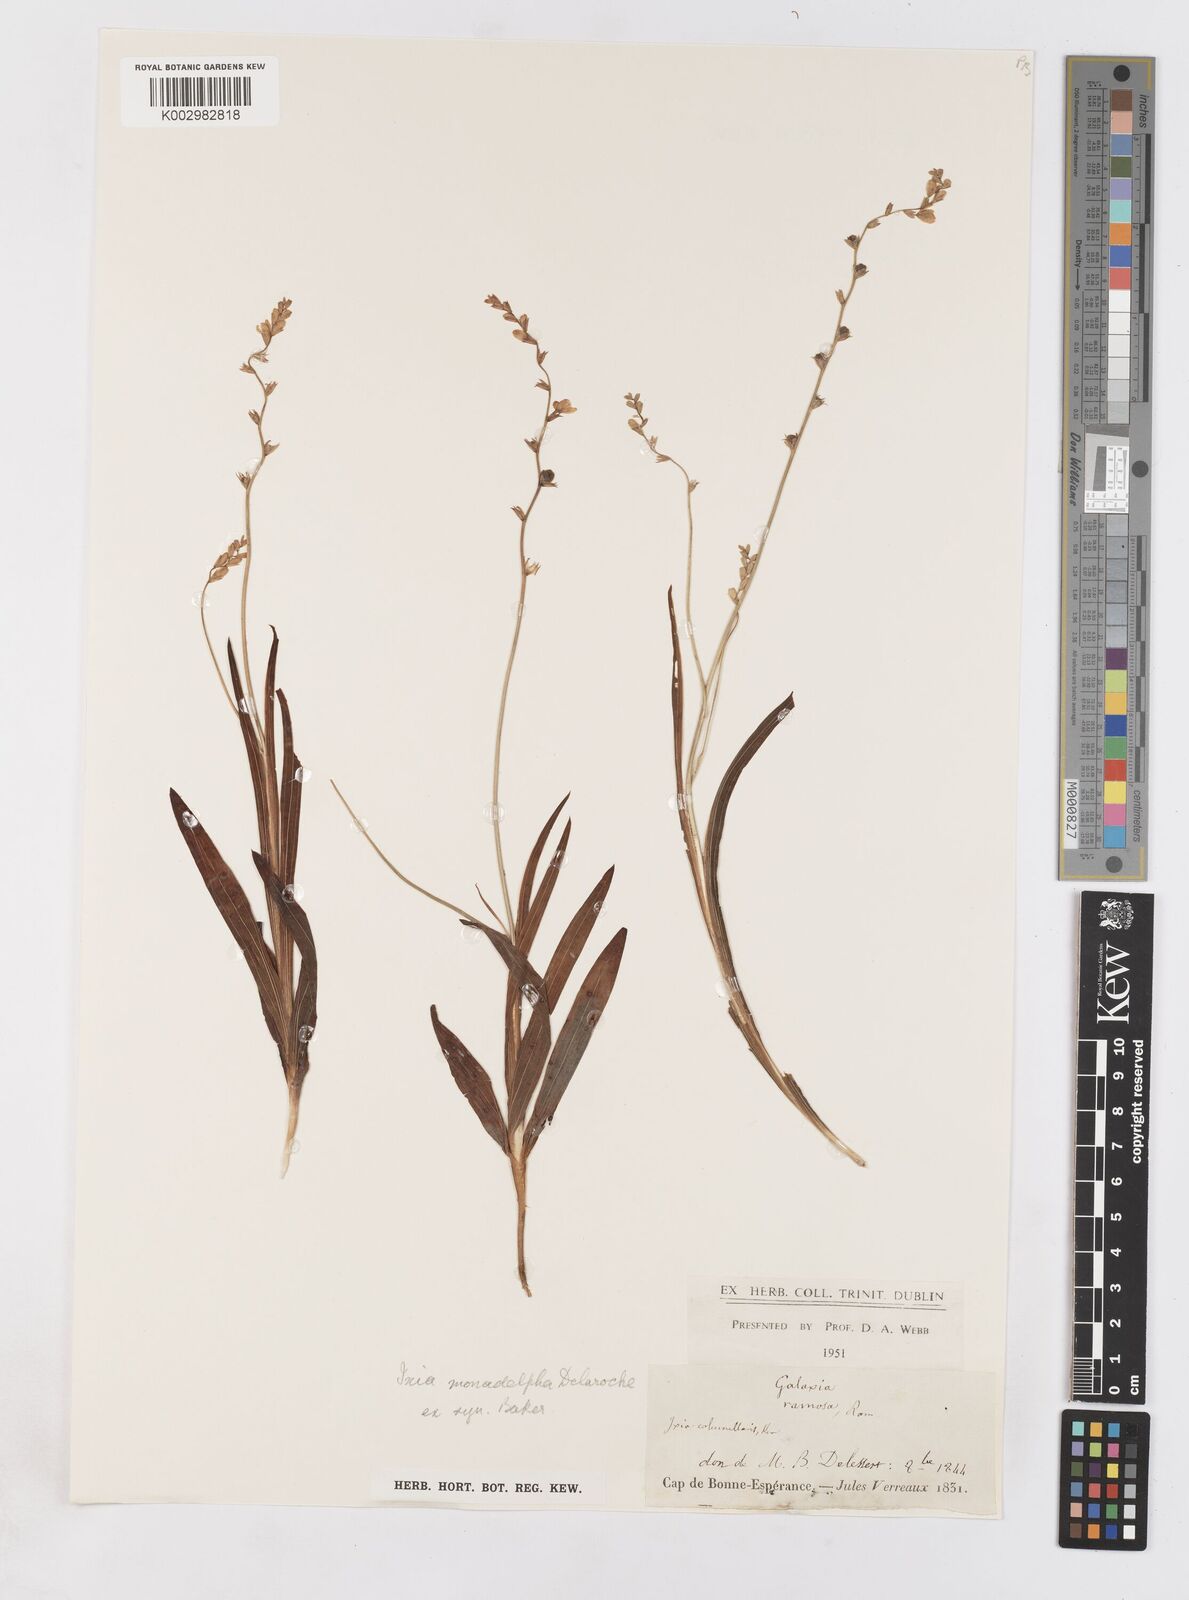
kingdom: Plantae
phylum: Tracheophyta
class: Liliopsida
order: Asparagales
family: Iridaceae
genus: Geissorhiza
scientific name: Geissorhiza scillaris
